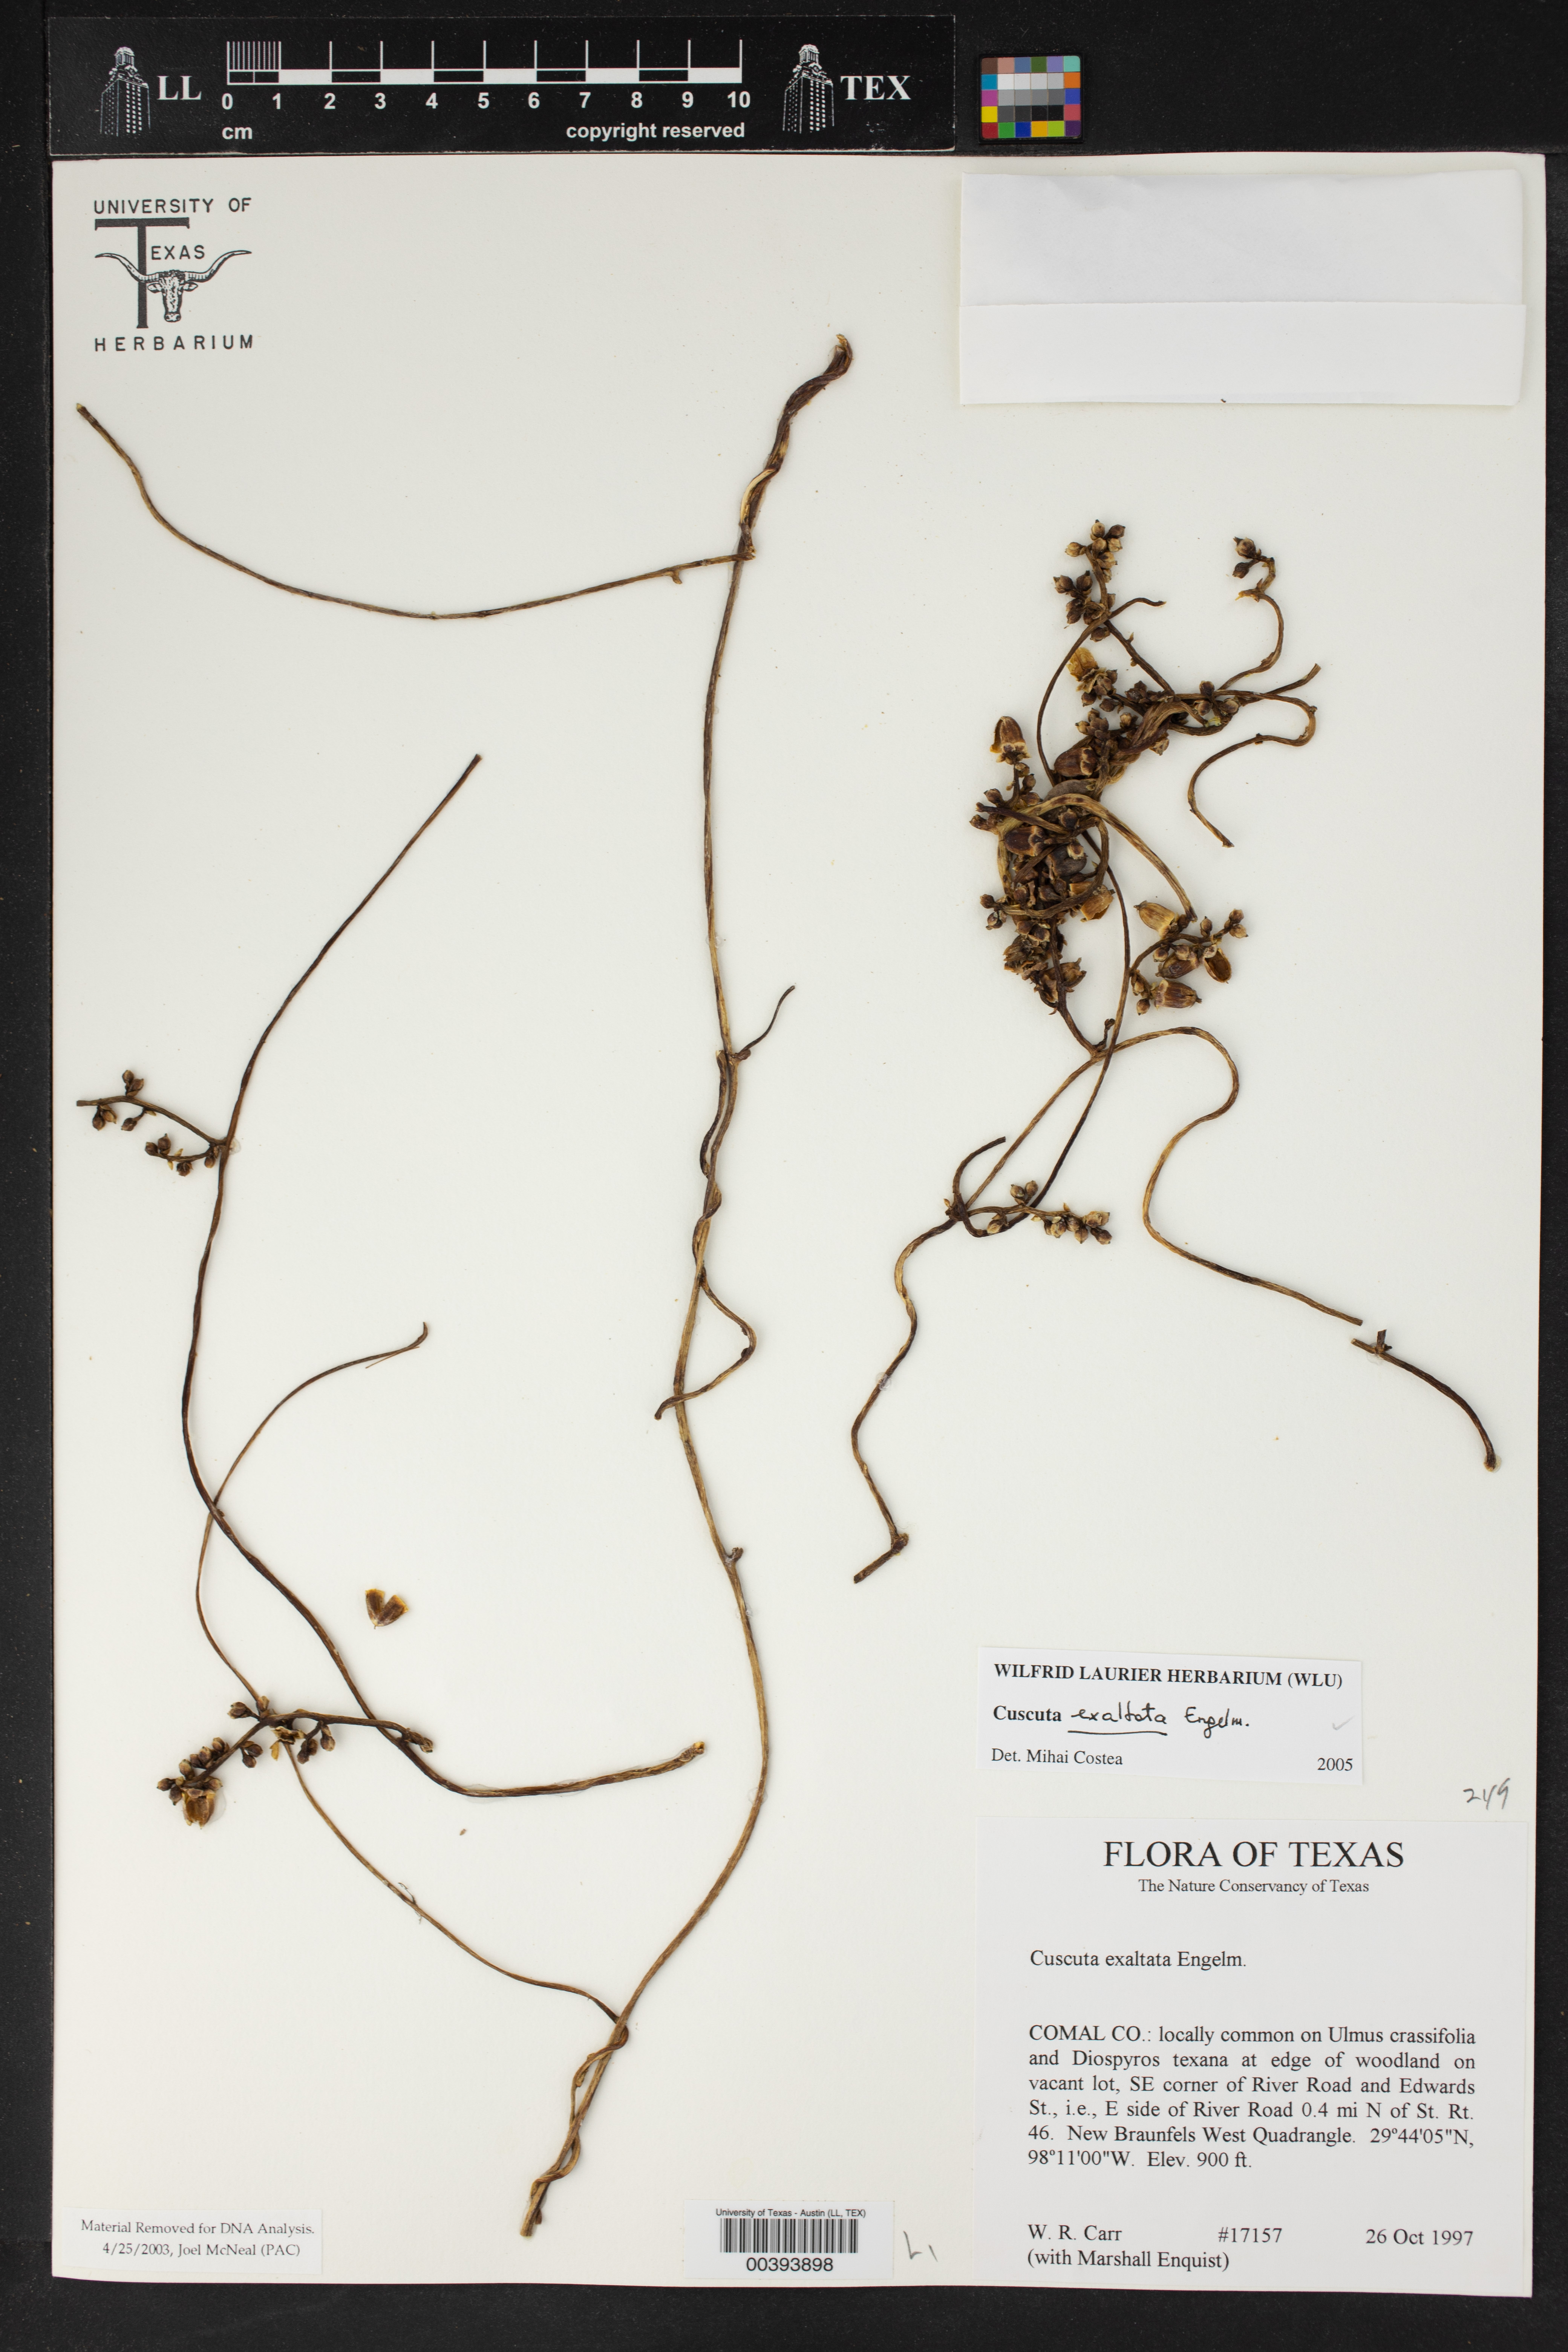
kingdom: Plantae
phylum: Tracheophyta
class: Magnoliopsida
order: Solanales
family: Convolvulaceae
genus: Cuscuta
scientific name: Cuscuta exaltata
